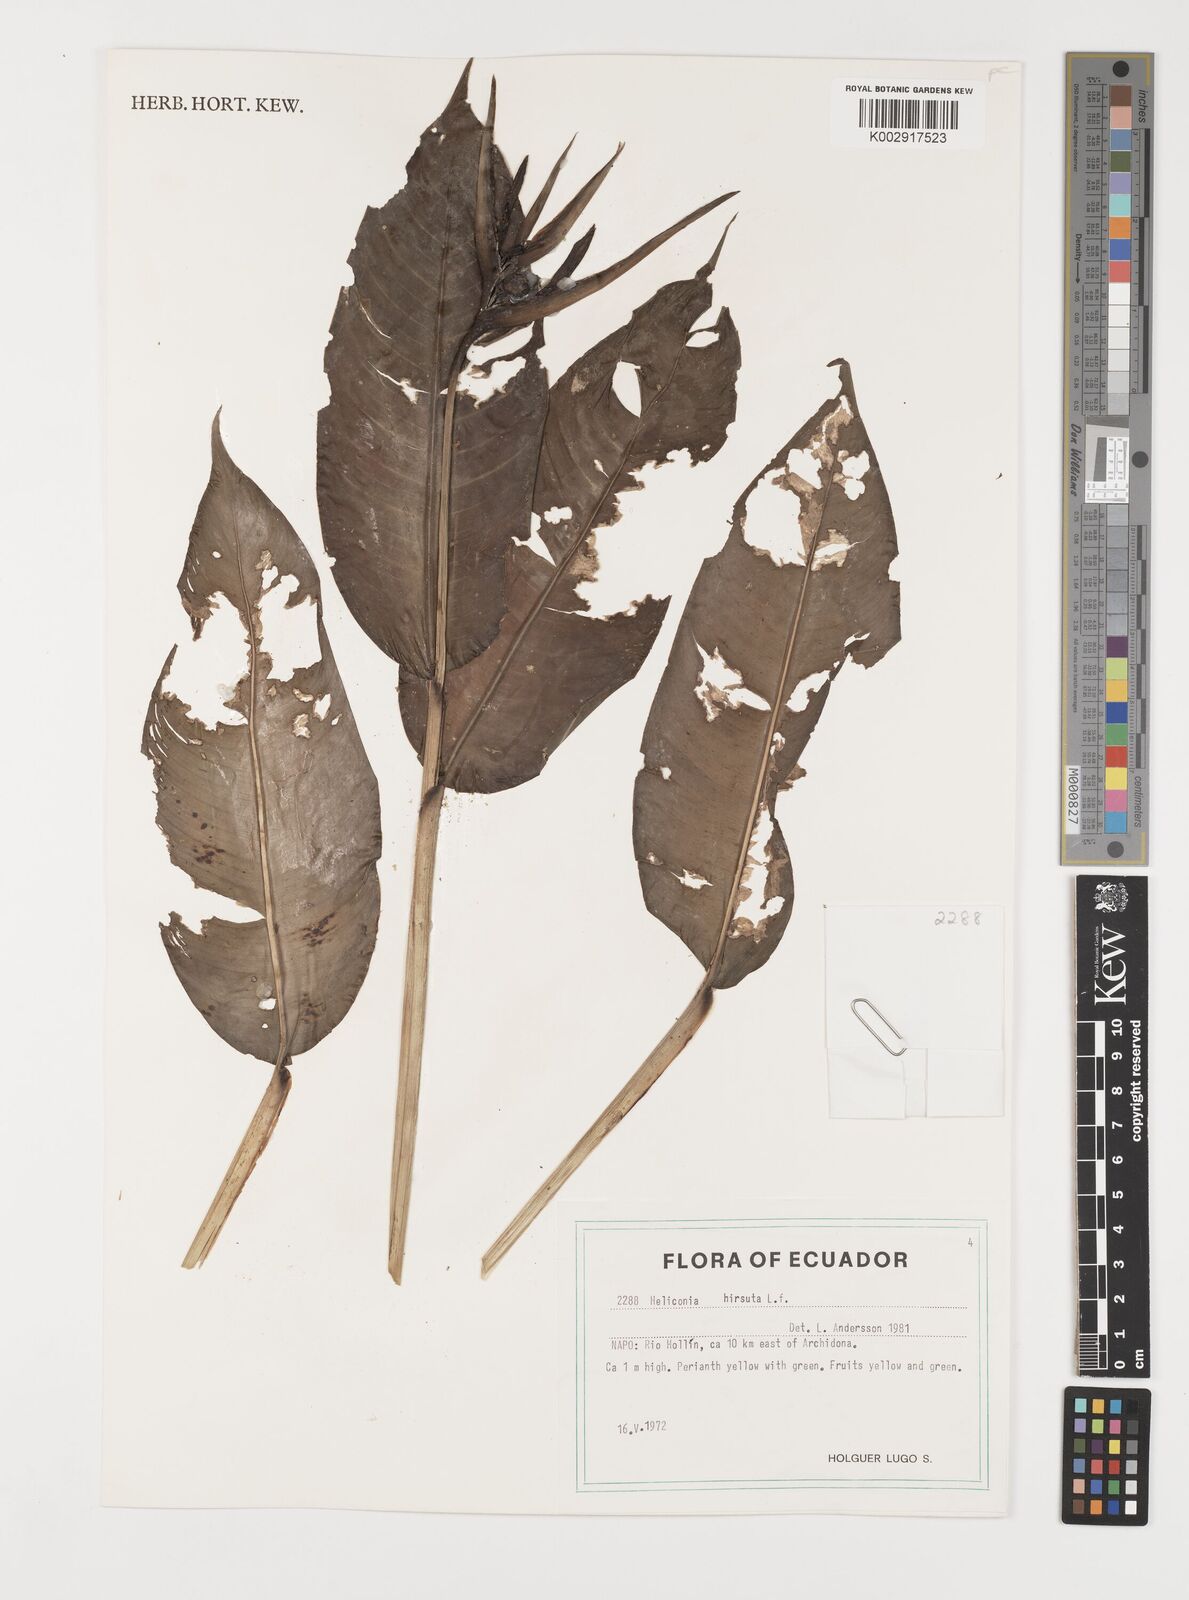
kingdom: Plantae
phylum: Tracheophyta
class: Liliopsida
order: Zingiberales
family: Heliconiaceae
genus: Heliconia
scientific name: Heliconia hirsuta
